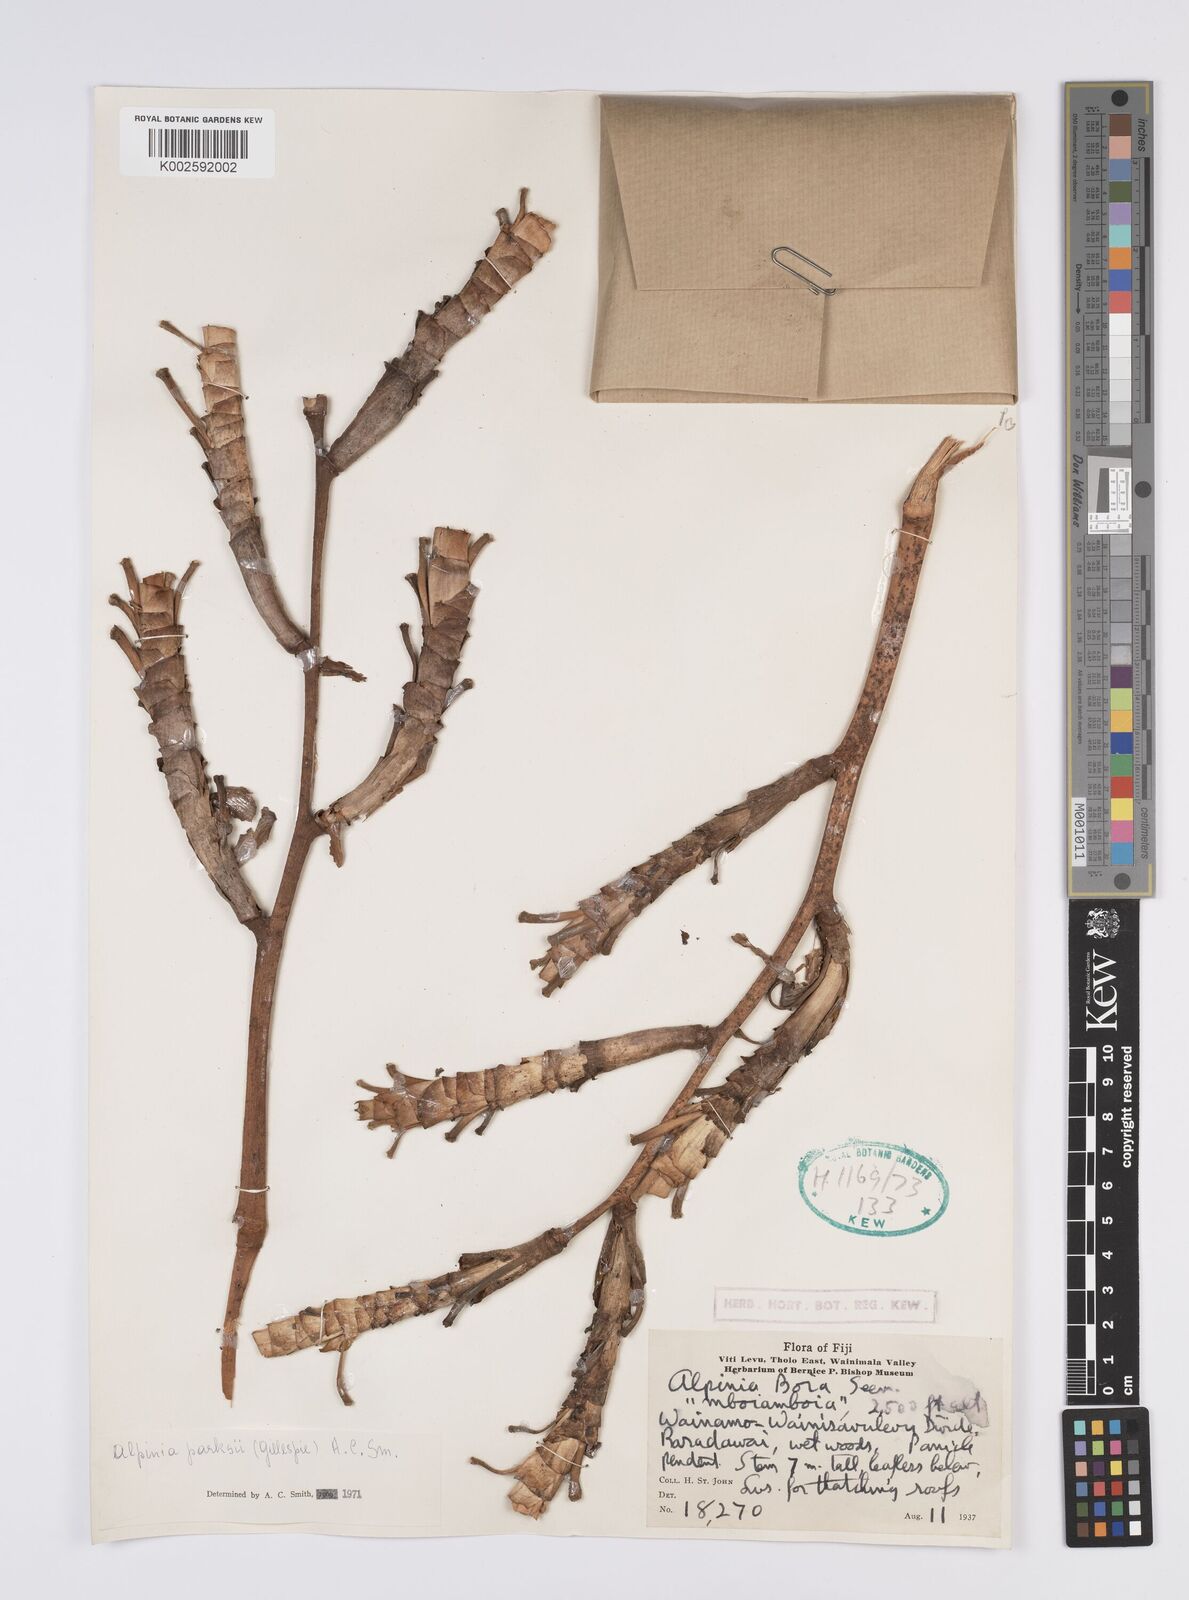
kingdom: Plantae
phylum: Tracheophyta
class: Liliopsida
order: Zingiberales
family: Zingiberaceae
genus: Alpinia
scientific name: Alpinia parksii
